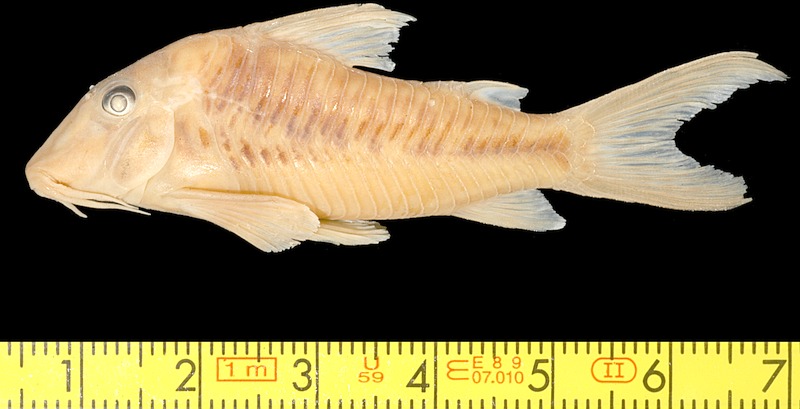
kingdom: Animalia
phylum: Chordata
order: Siluriformes
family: Callichthyidae
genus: Corydoras
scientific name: Corydoras treitlii
